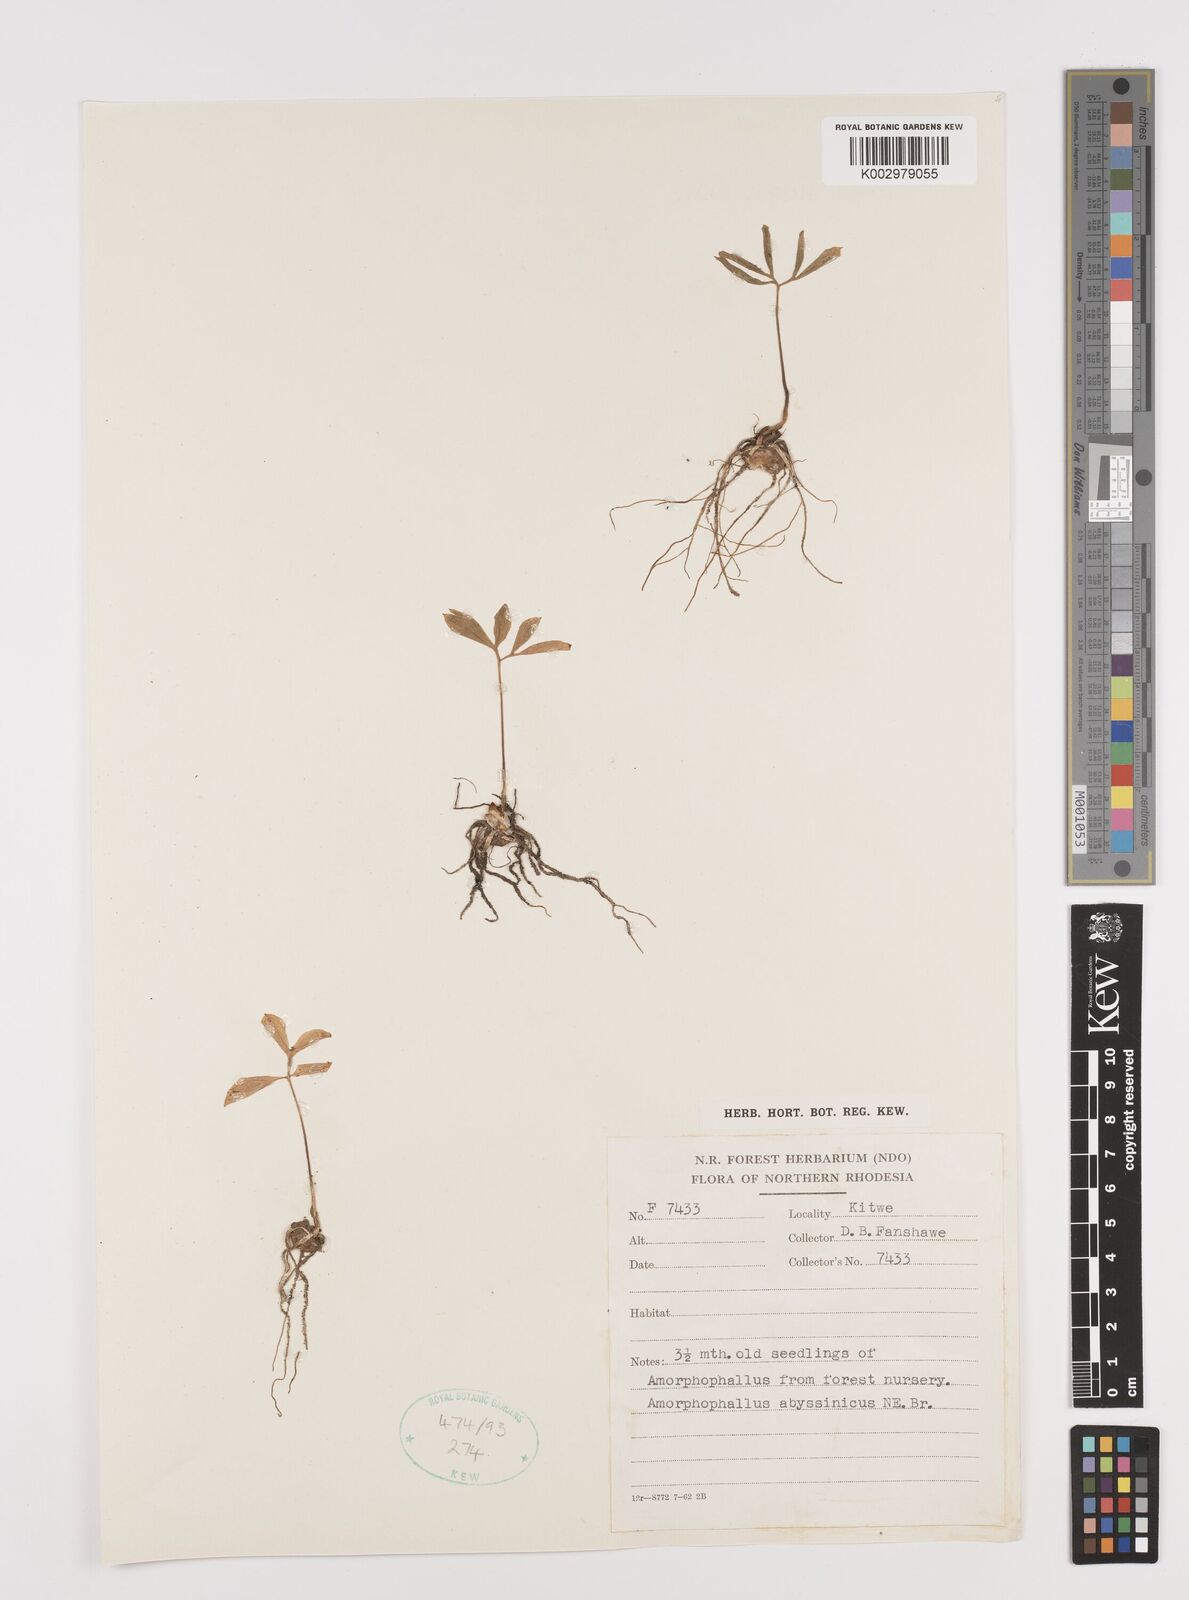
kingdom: Plantae
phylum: Tracheophyta
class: Liliopsida
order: Alismatales
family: Araceae
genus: Amorphophallus
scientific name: Amorphophallus abyssinicus
